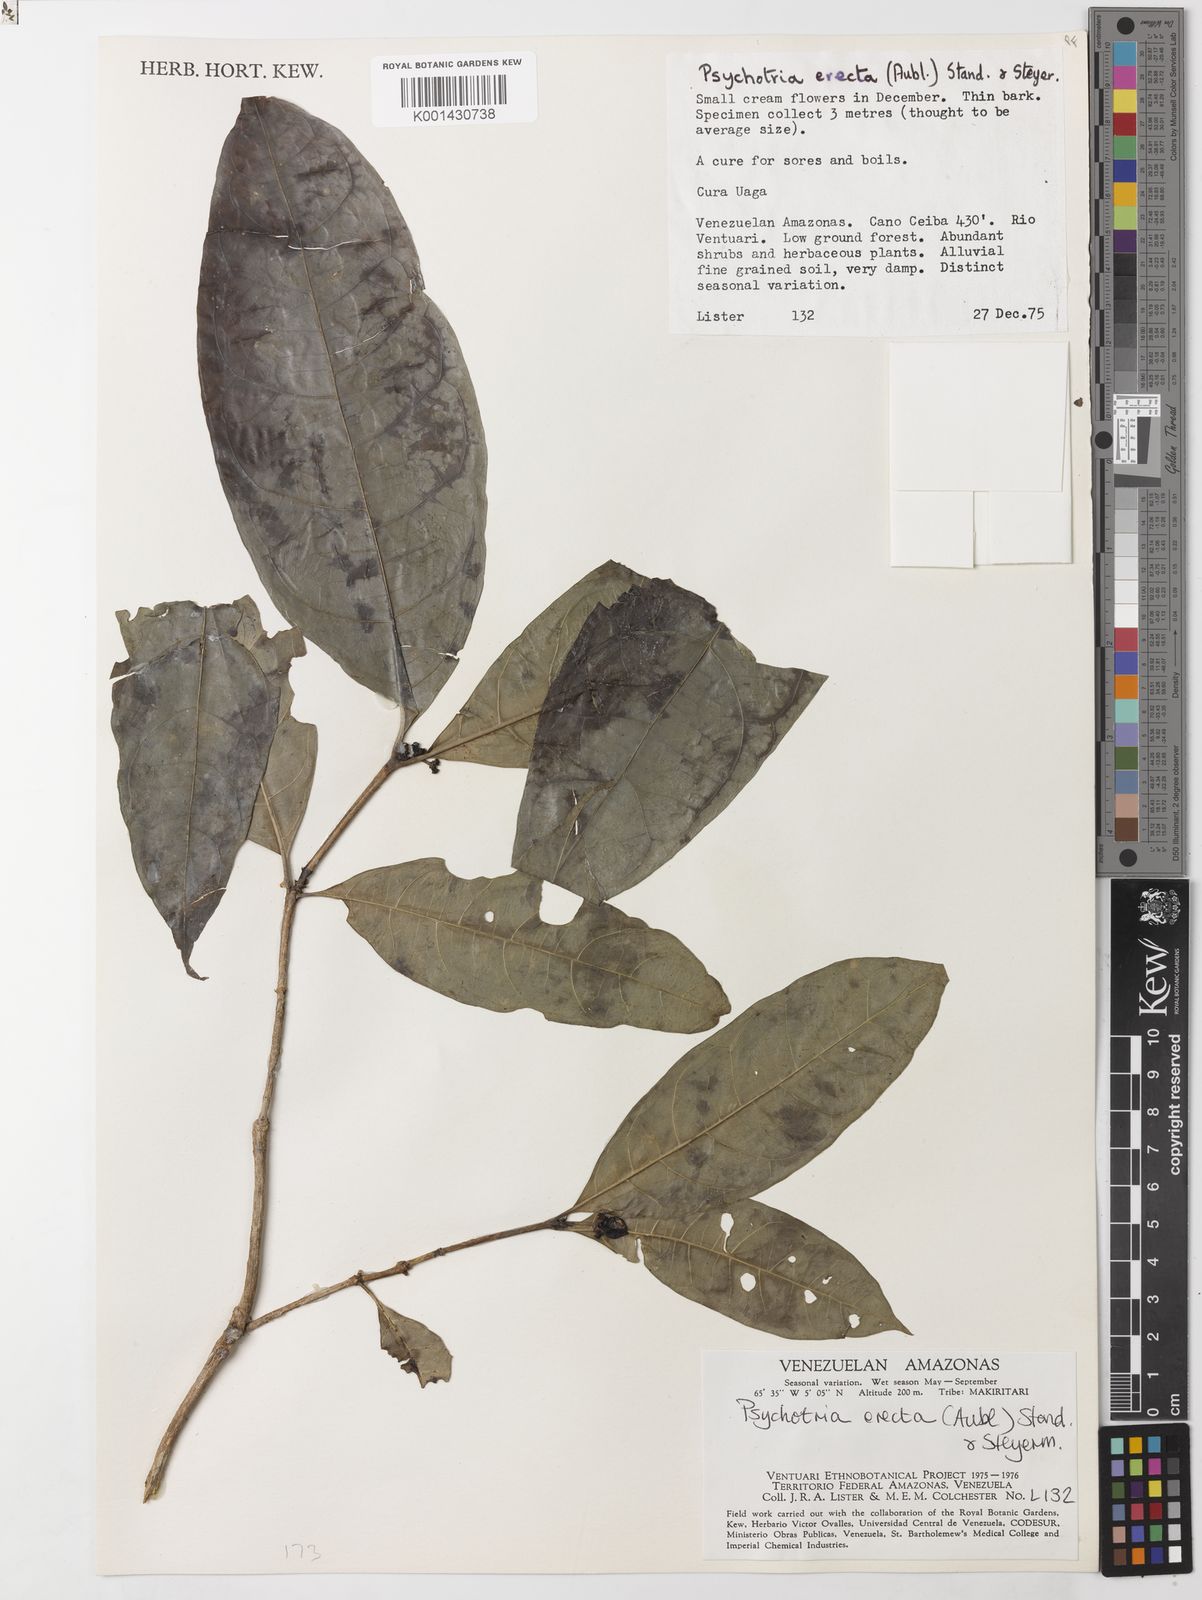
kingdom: Plantae
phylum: Tracheophyta
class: Magnoliopsida
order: Gentianales
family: Rubiaceae
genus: Ronabea
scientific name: Ronabea latifolia
